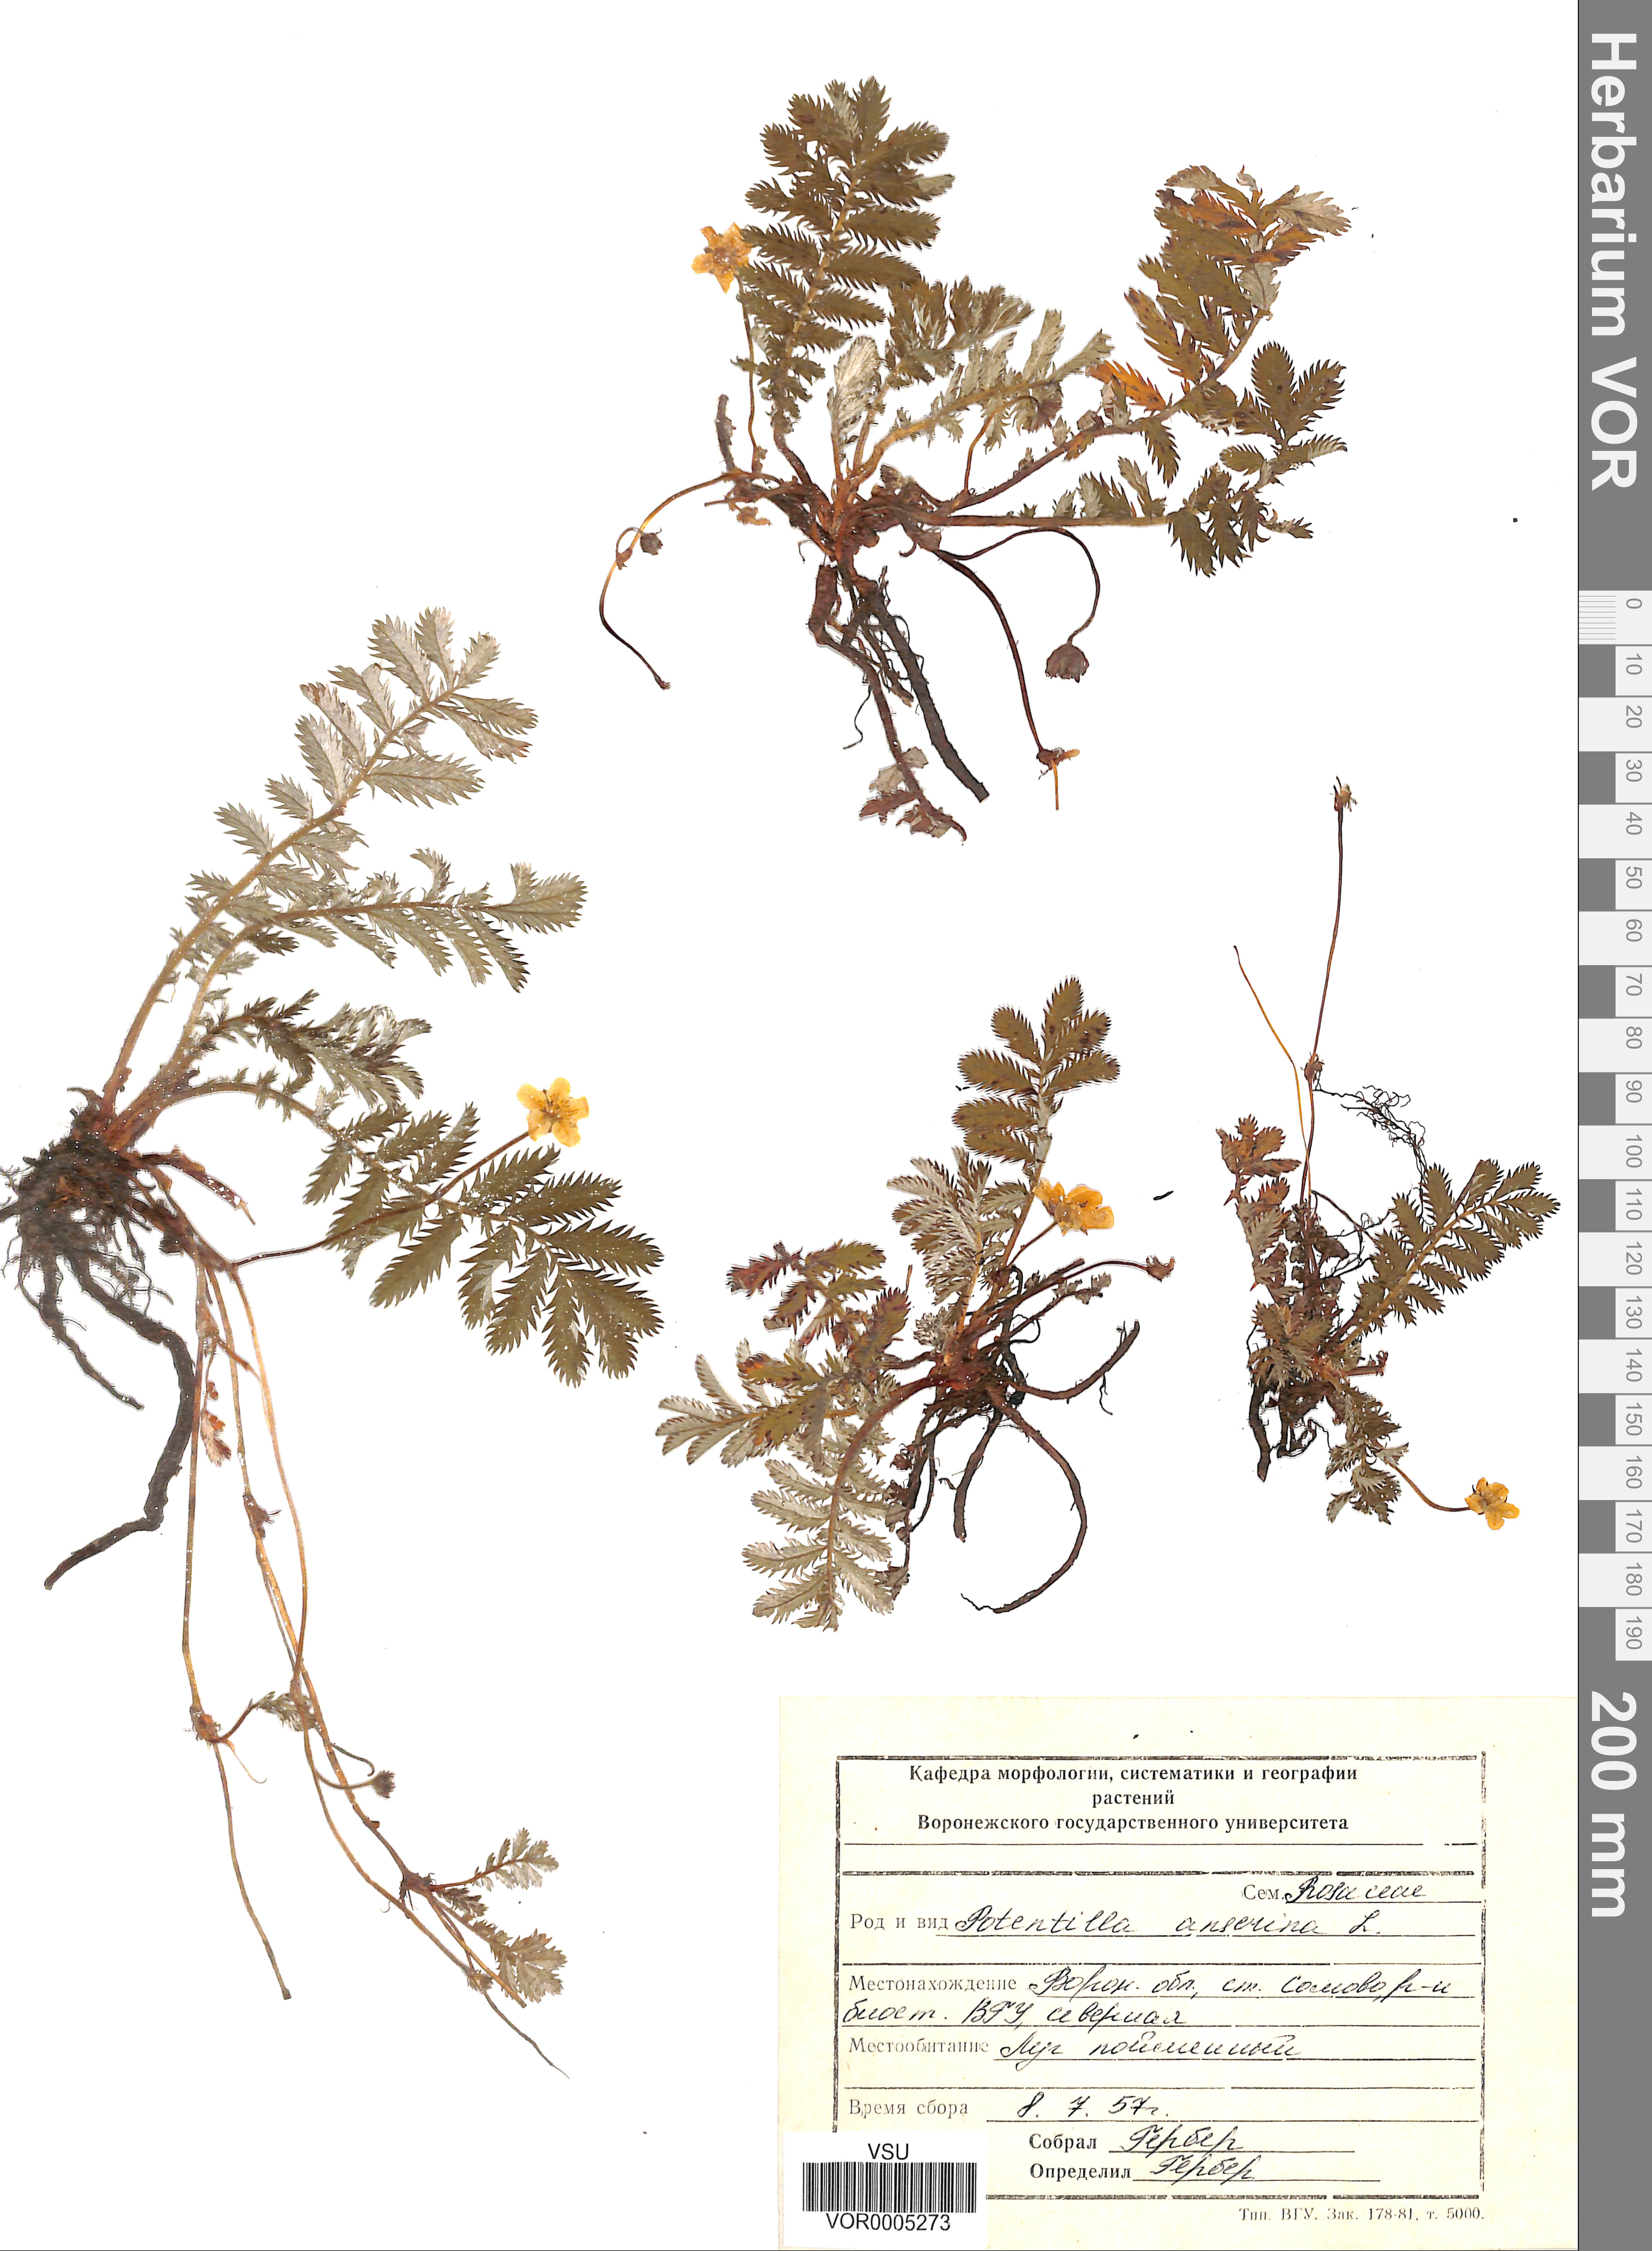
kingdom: Plantae
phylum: Tracheophyta
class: Magnoliopsida
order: Rosales
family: Rosaceae
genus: Argentina
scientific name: Argentina anserina
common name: Common silverweed
